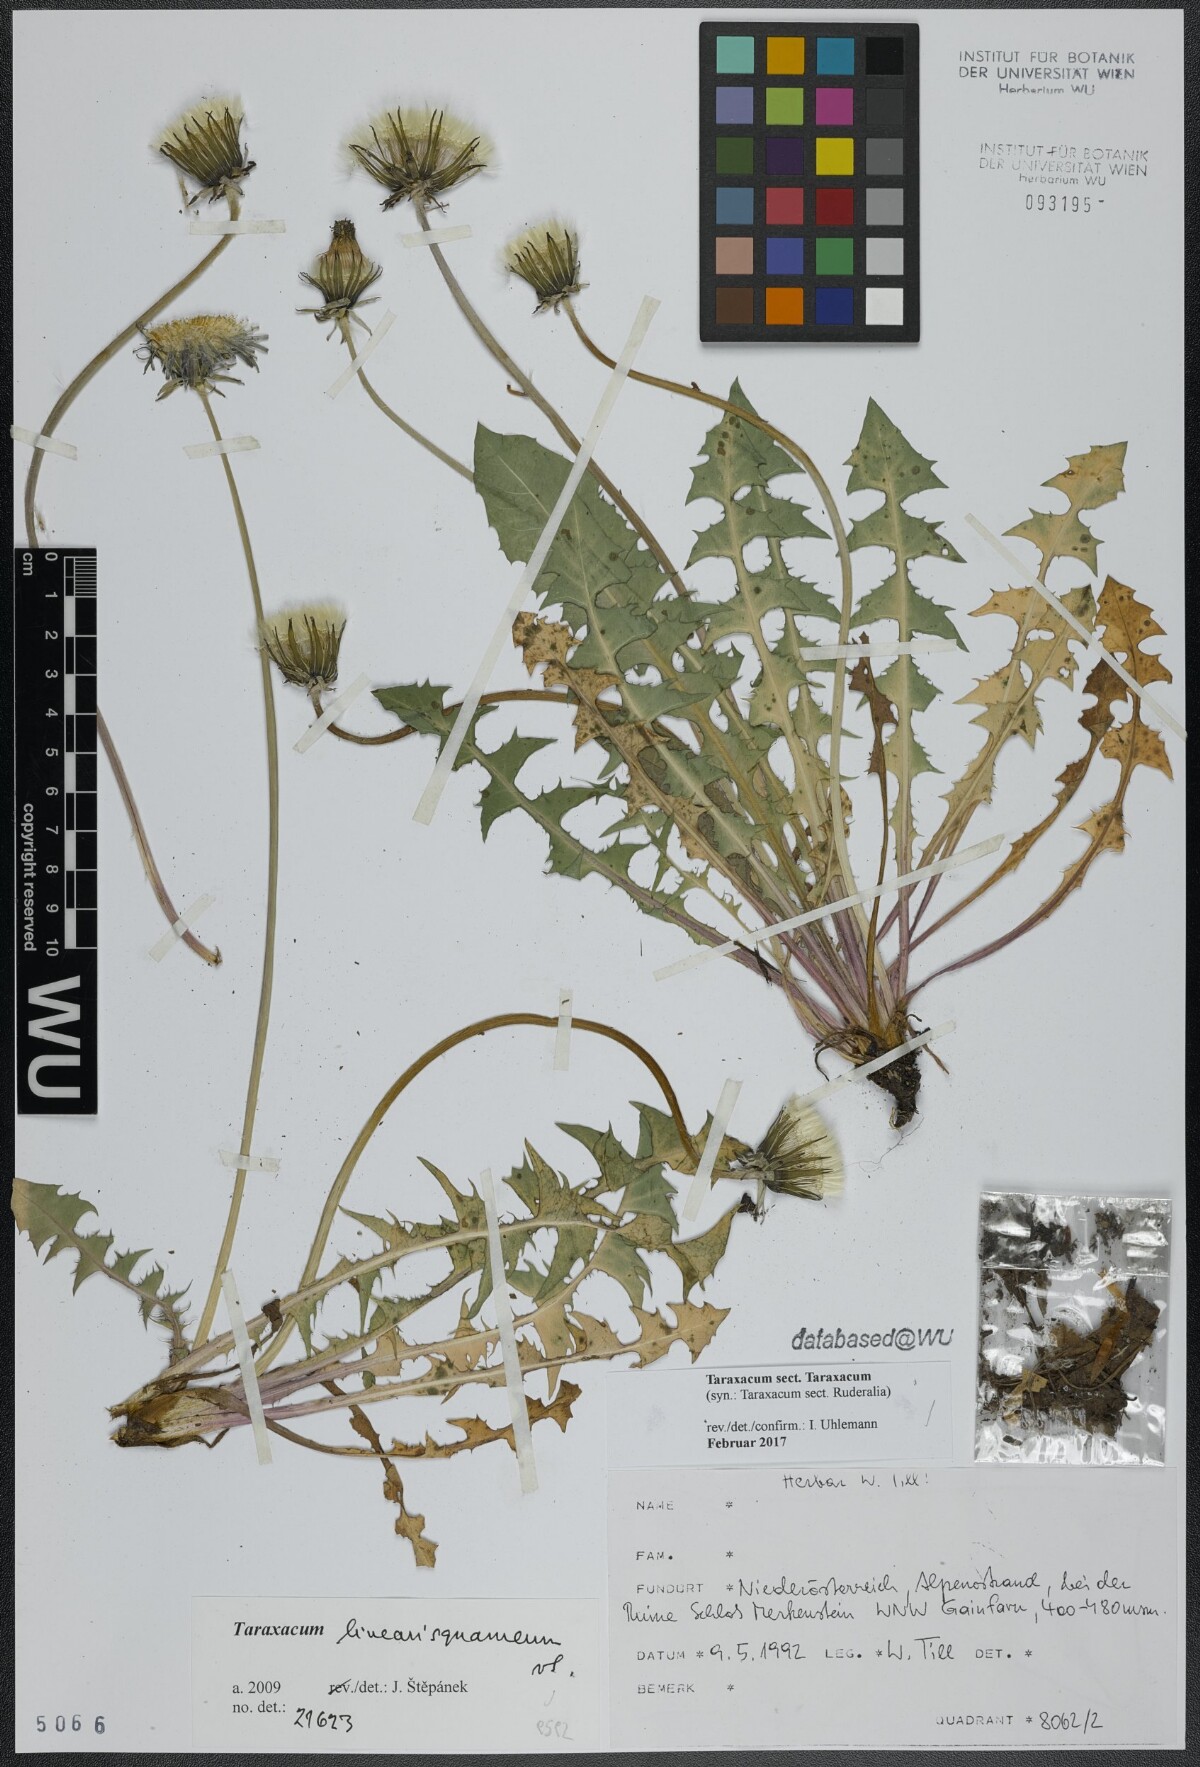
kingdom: Plantae
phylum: Tracheophyta
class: Magnoliopsida
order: Asterales
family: Asteraceae
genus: Taraxacum
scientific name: Taraxacum
